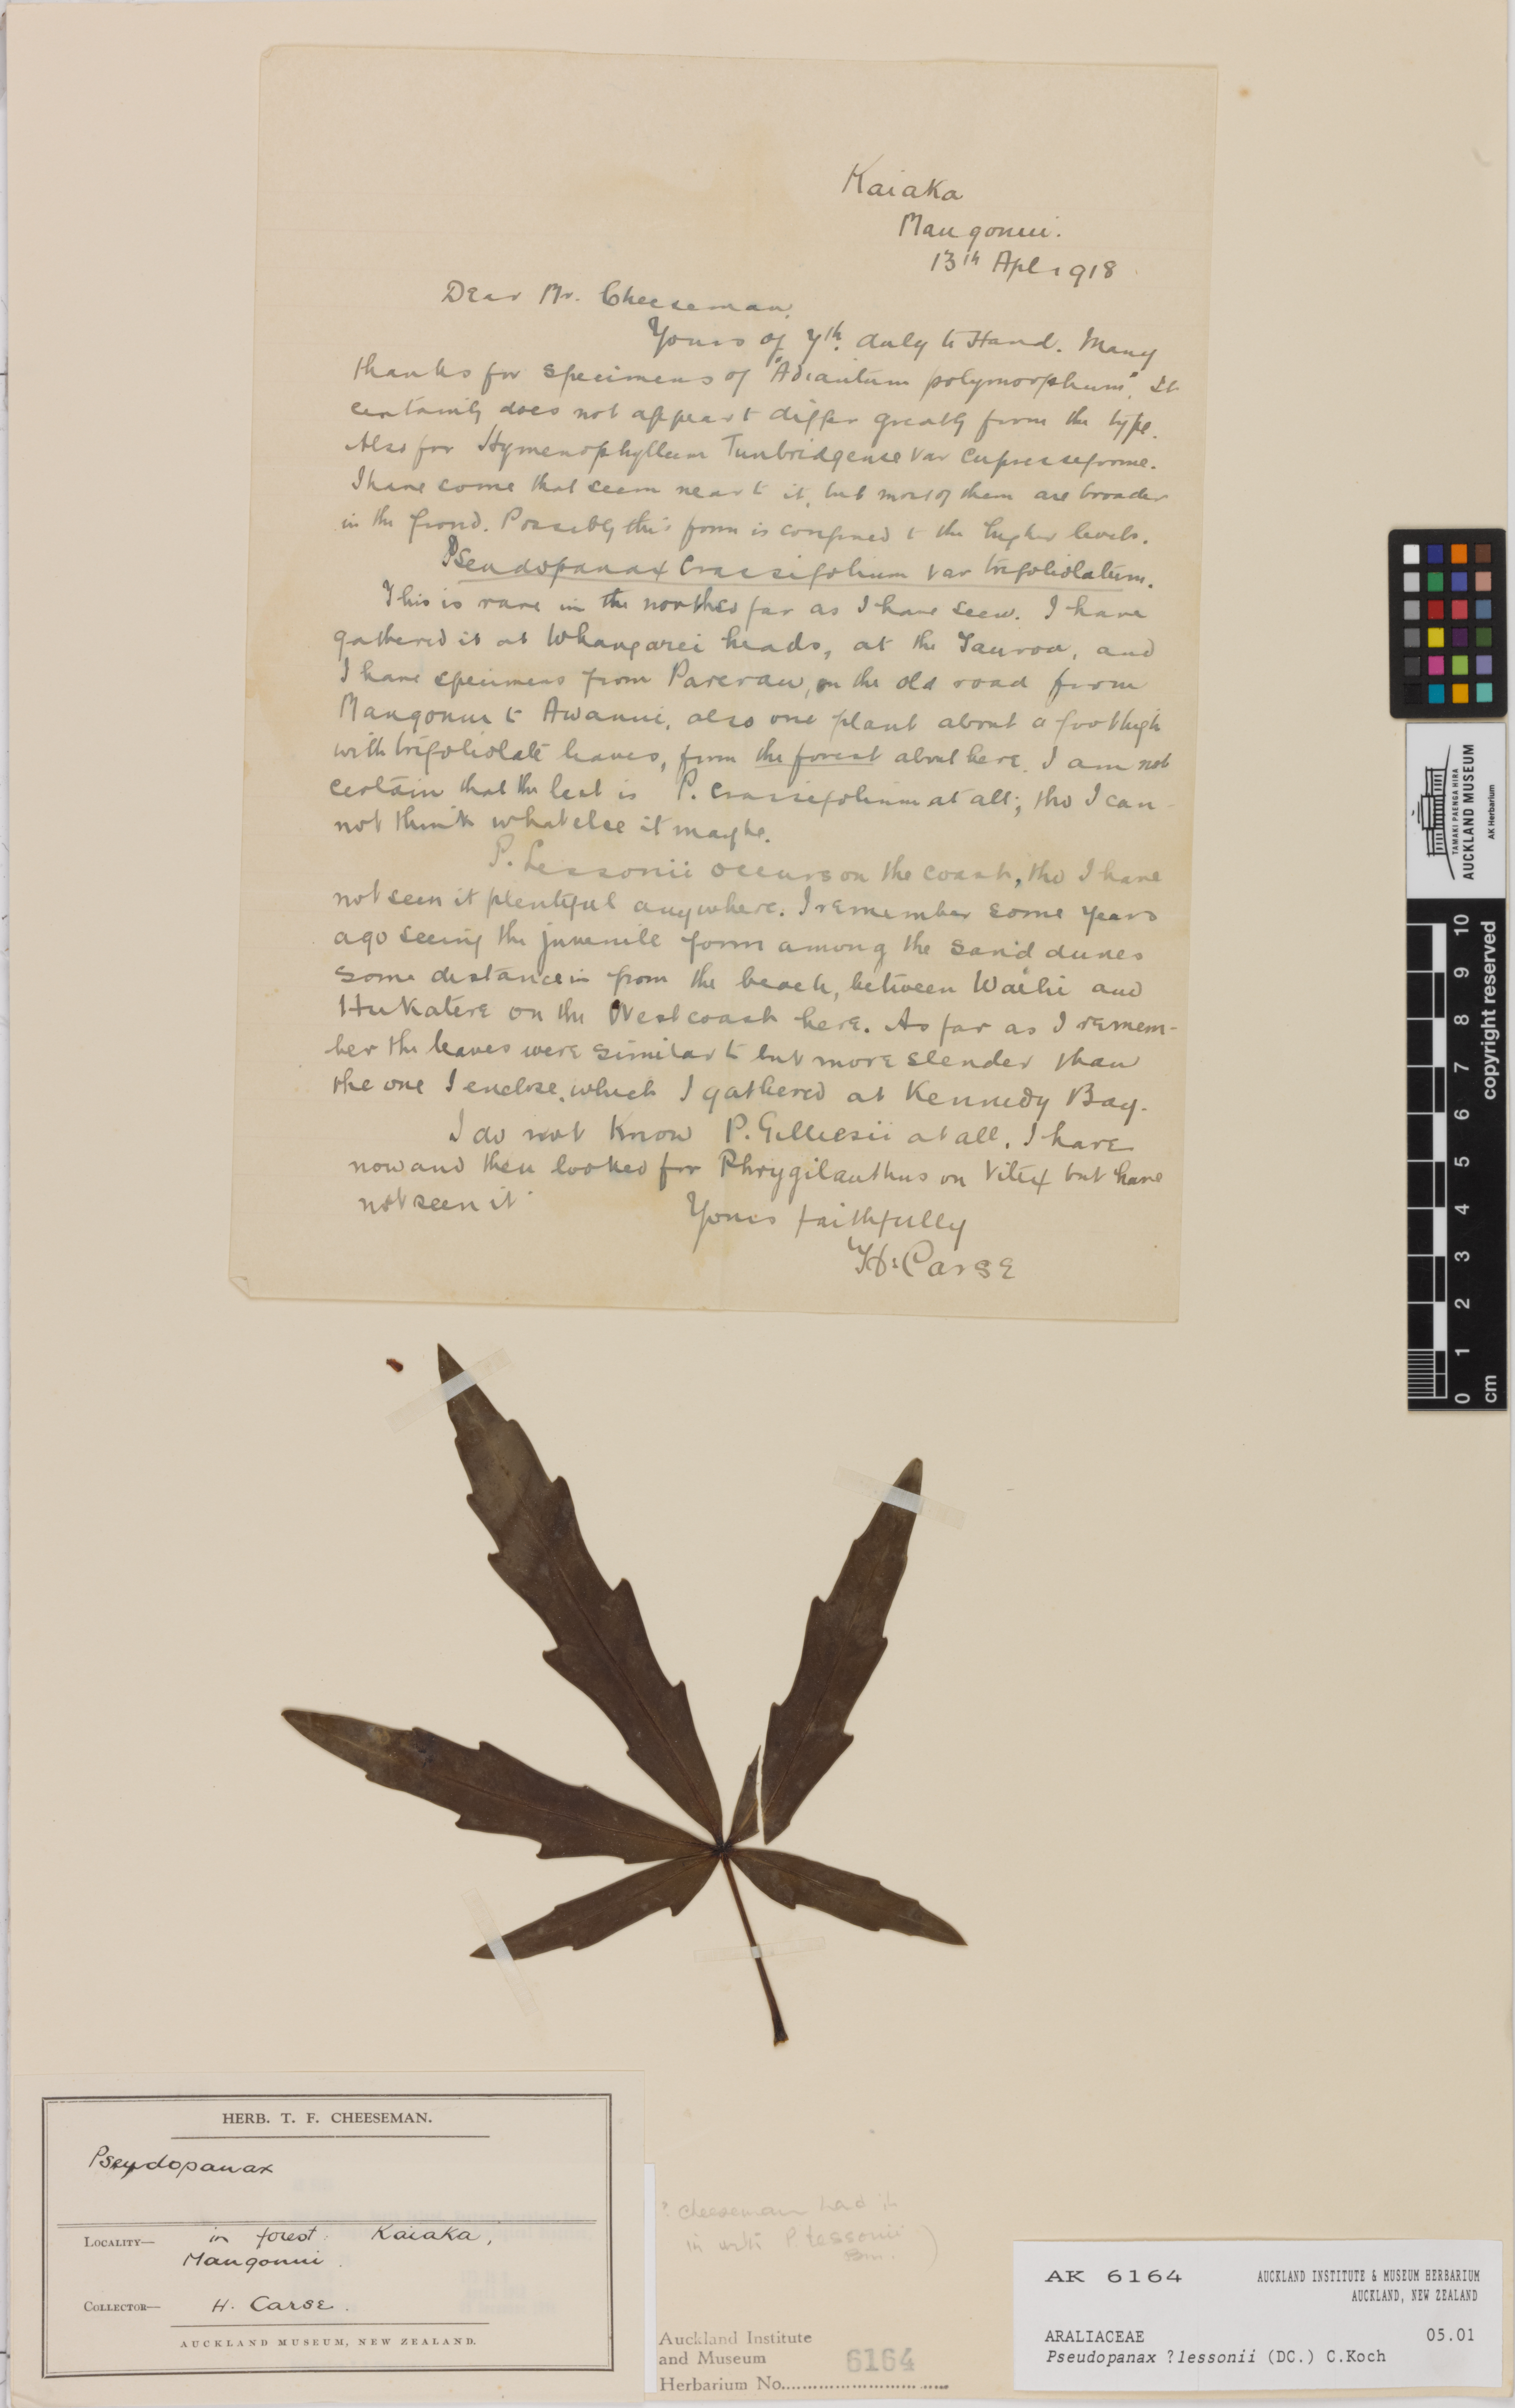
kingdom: Plantae
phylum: Tracheophyta
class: Magnoliopsida
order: Apiales
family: Araliaceae
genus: Pseudopanax
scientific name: Pseudopanax lessonii
